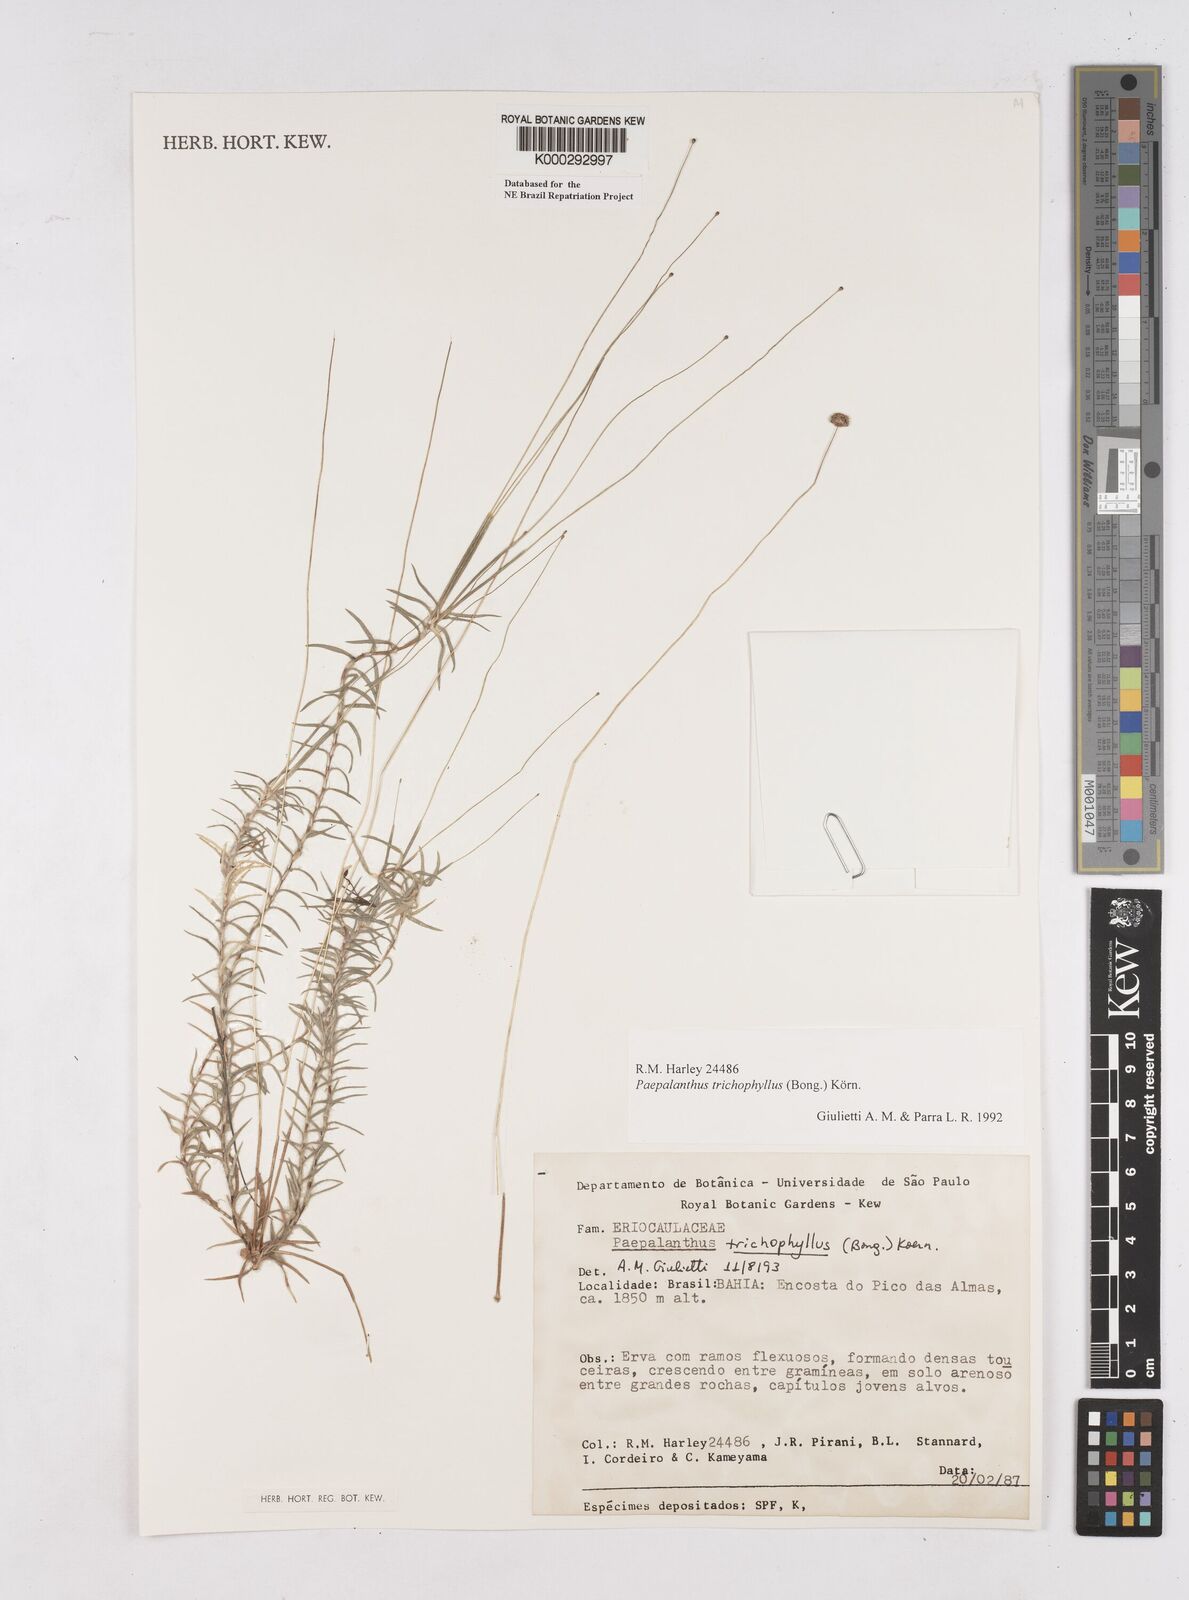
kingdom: Plantae
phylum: Tracheophyta
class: Liliopsida
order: Poales
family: Eriocaulaceae
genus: Paepalanthus
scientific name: Paepalanthus
